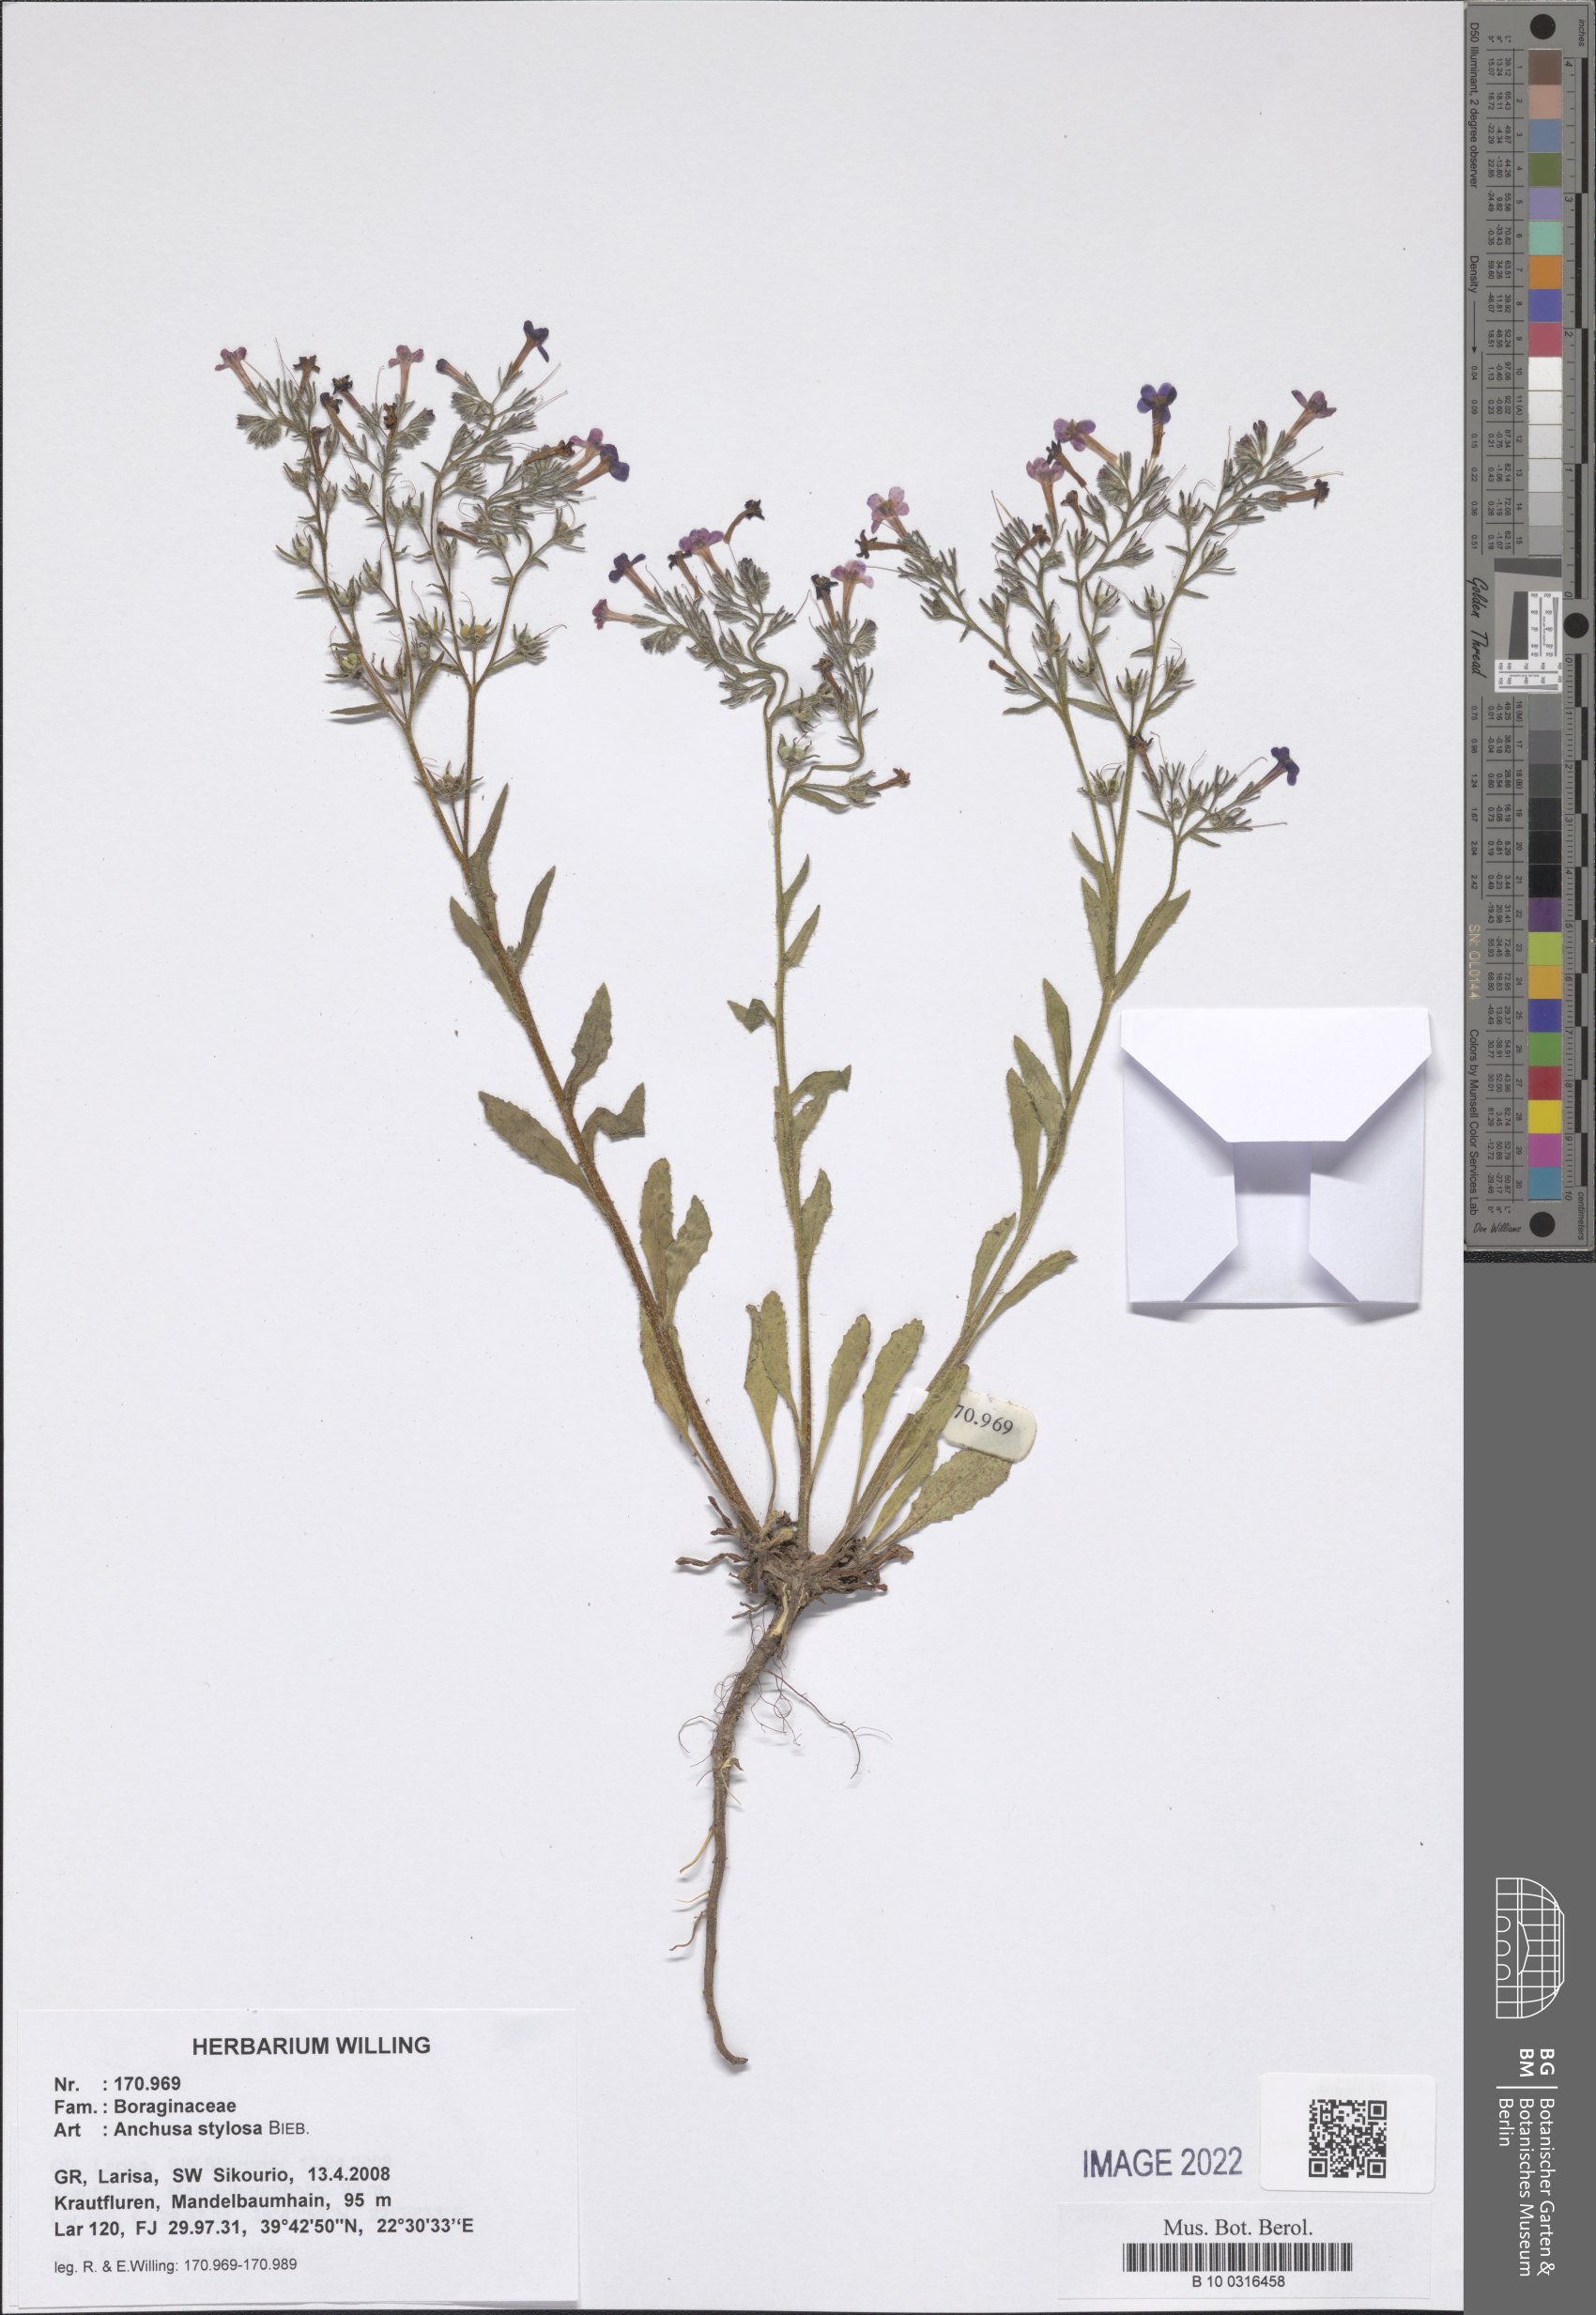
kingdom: Plantae
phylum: Tracheophyta
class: Magnoliopsida
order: Boraginales
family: Boraginaceae
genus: Anchusa
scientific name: Anchusa stylosa
